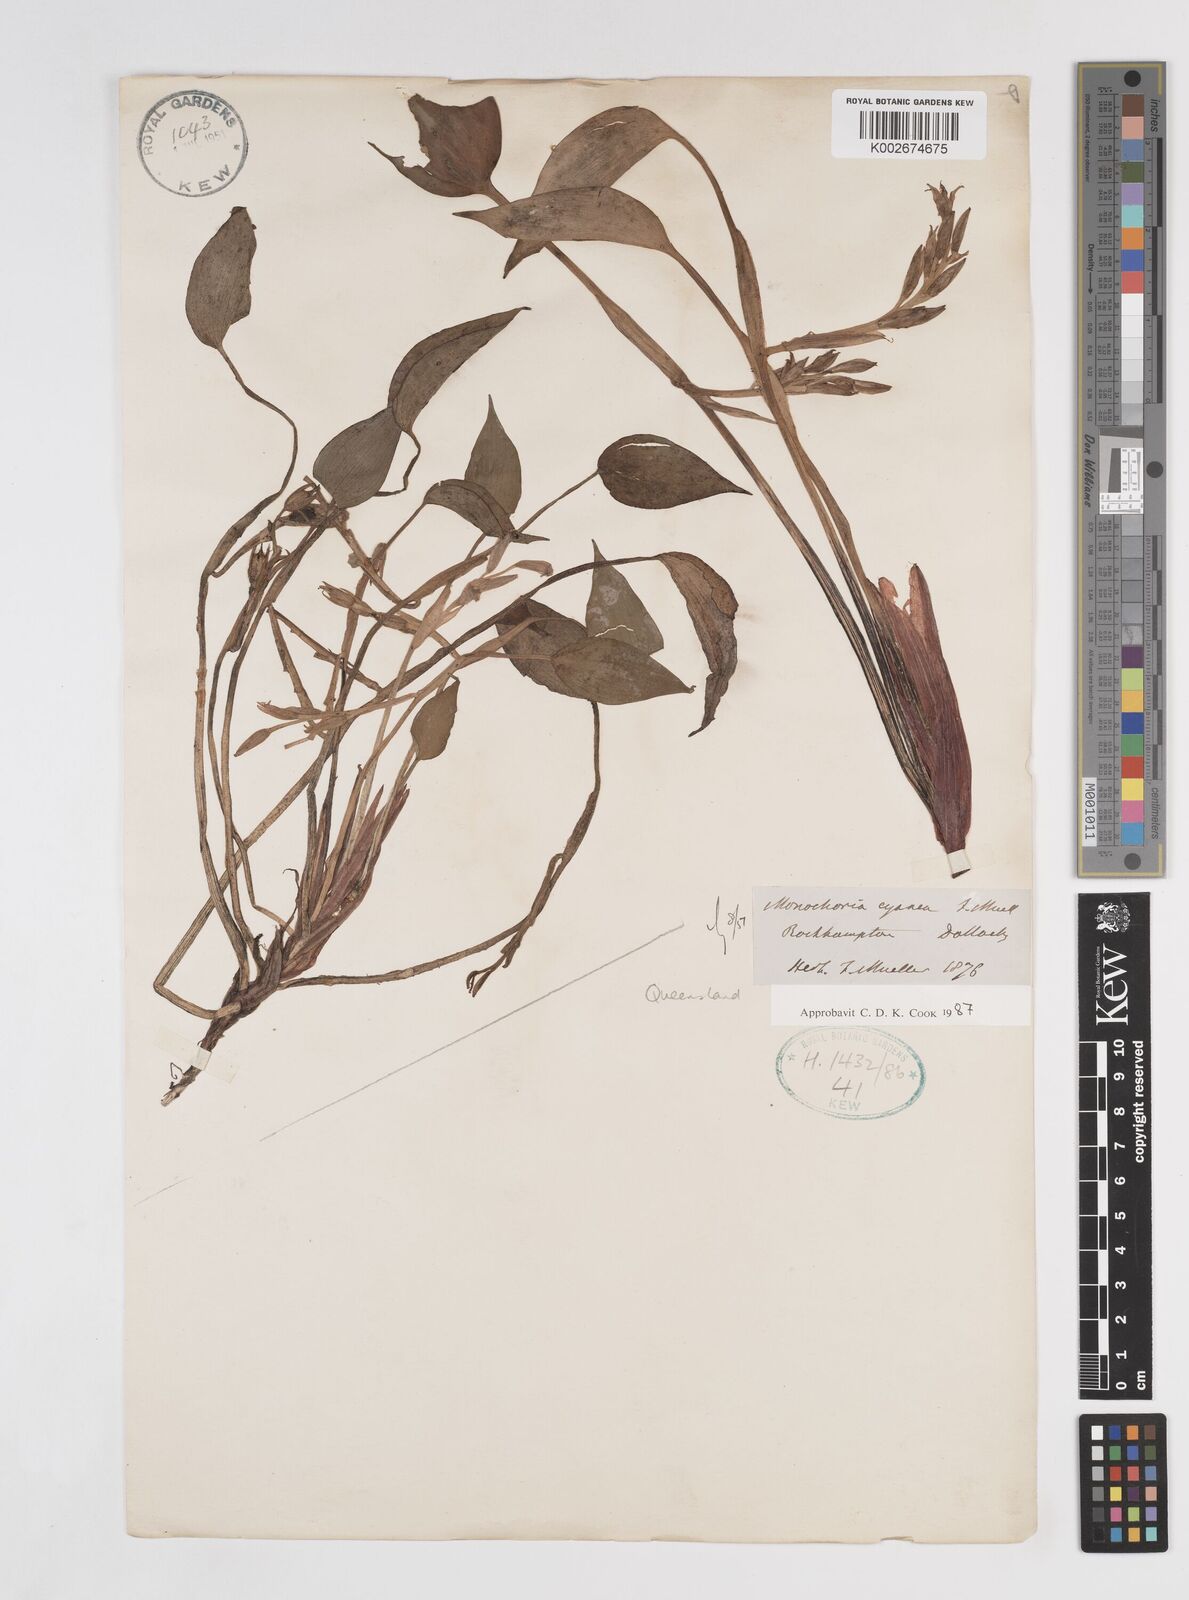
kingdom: Plantae
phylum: Tracheophyta
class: Liliopsida
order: Commelinales
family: Pontederiaceae
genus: Pontederia
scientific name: Pontederia cyanea
